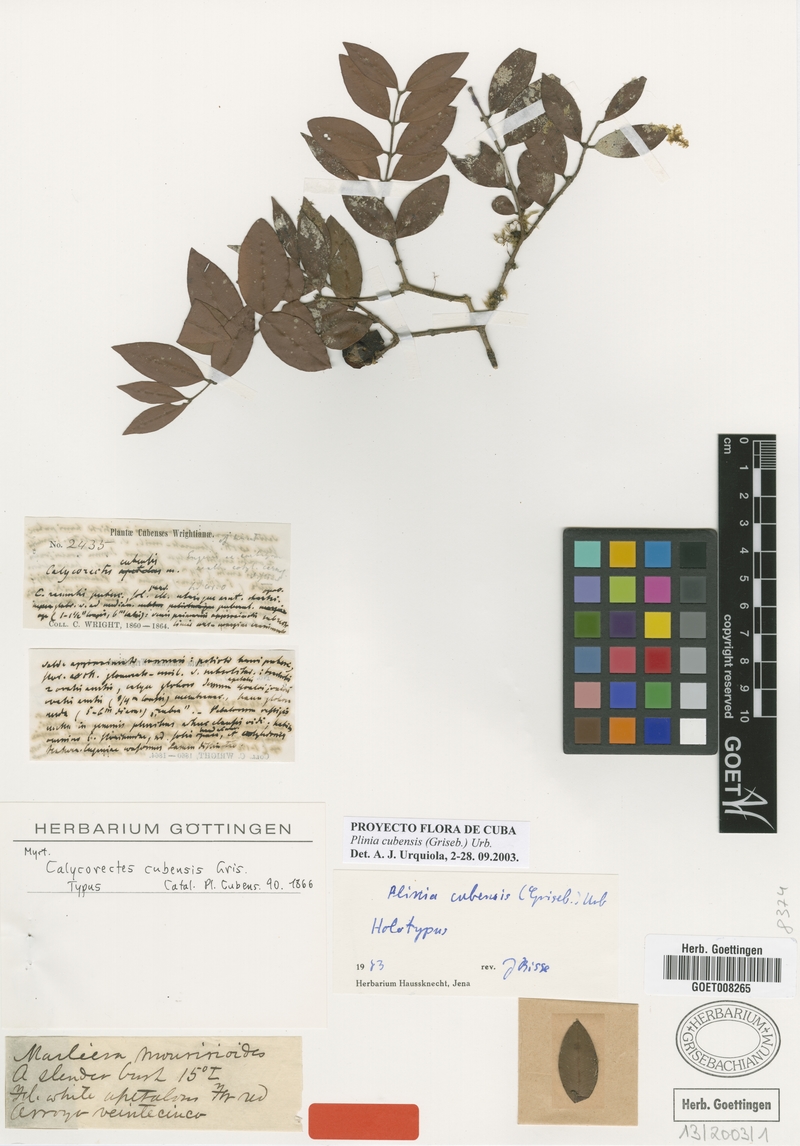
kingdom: Plantae
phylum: Tracheophyta
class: Magnoliopsida
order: Myrtales
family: Myrtaceae
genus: Myrciaria
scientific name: Myrciaria floribunda
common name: Guavaberry
